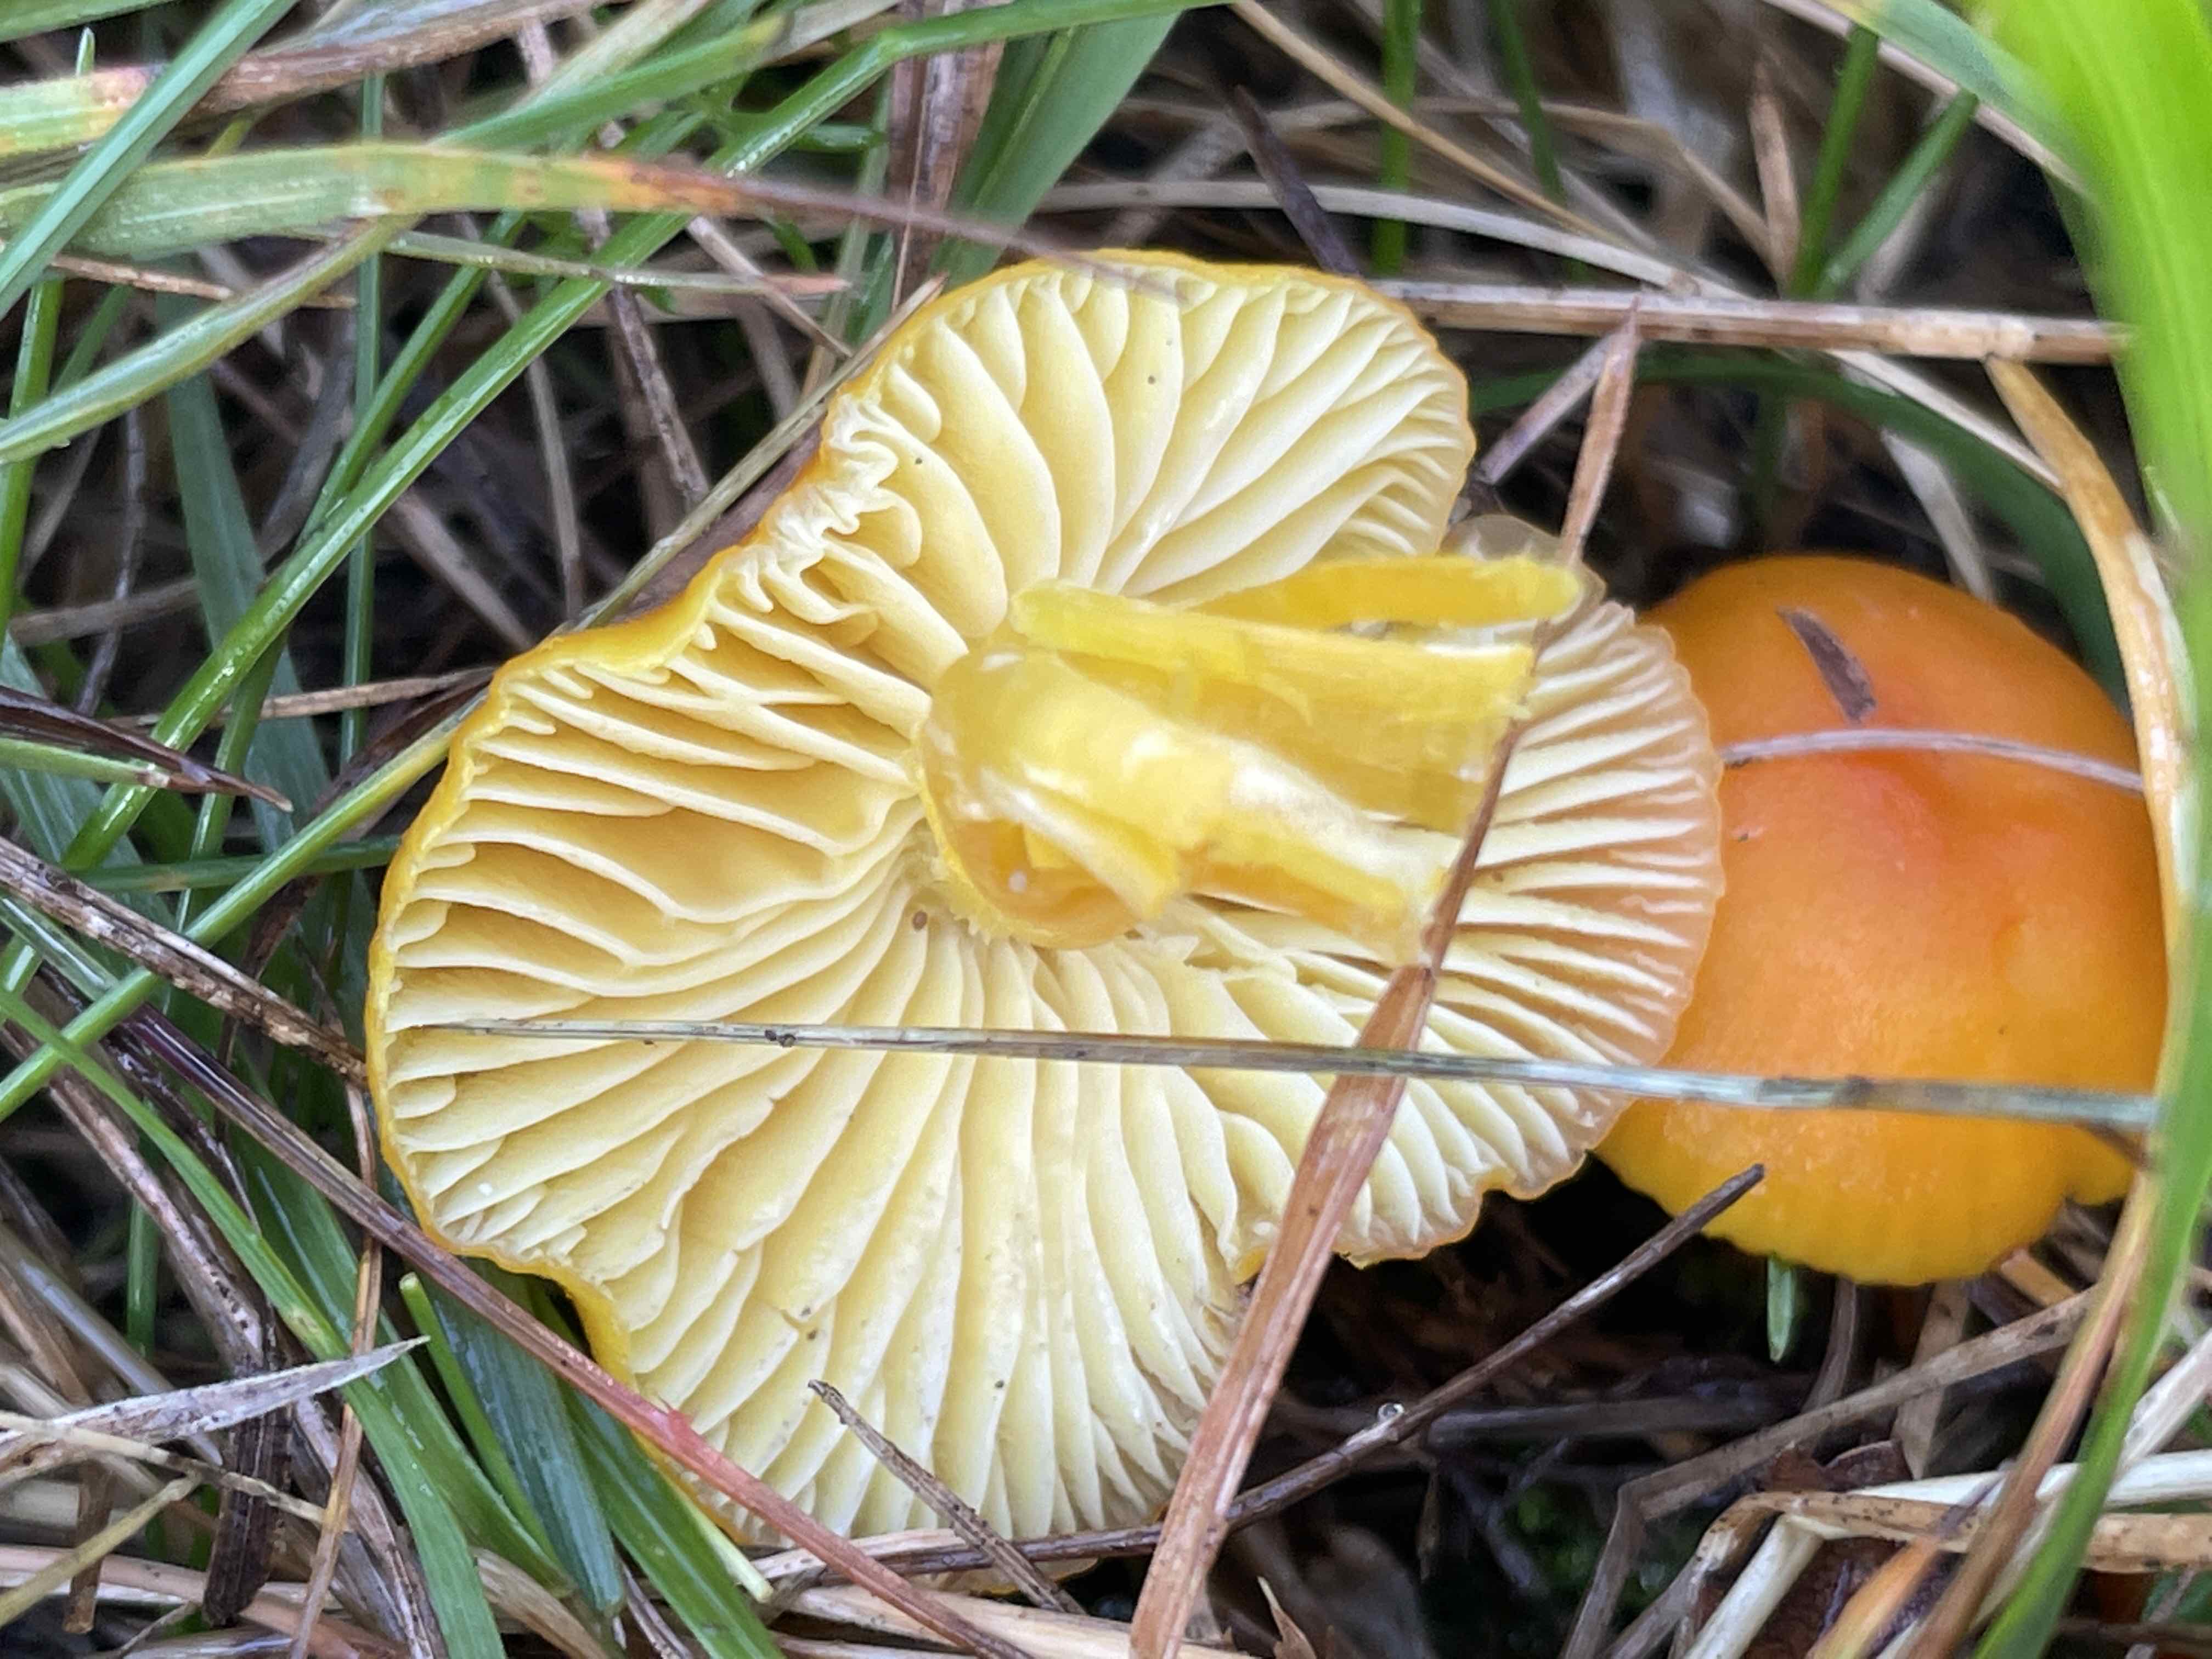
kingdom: Fungi
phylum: Basidiomycota
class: Agaricomycetes
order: Agaricales
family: Hygrophoraceae
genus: Hygrocybe
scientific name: Hygrocybe chlorophana
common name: gul vokshat
